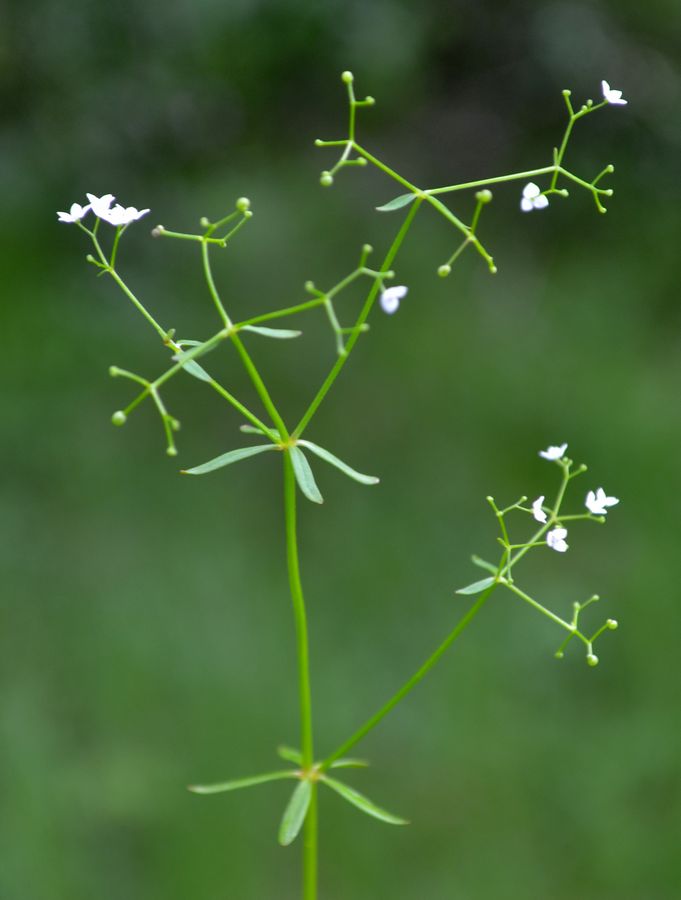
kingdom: Plantae
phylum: Tracheophyta
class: Magnoliopsida
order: Gentianales
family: Rubiaceae
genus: Galium
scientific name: Galium palustre
